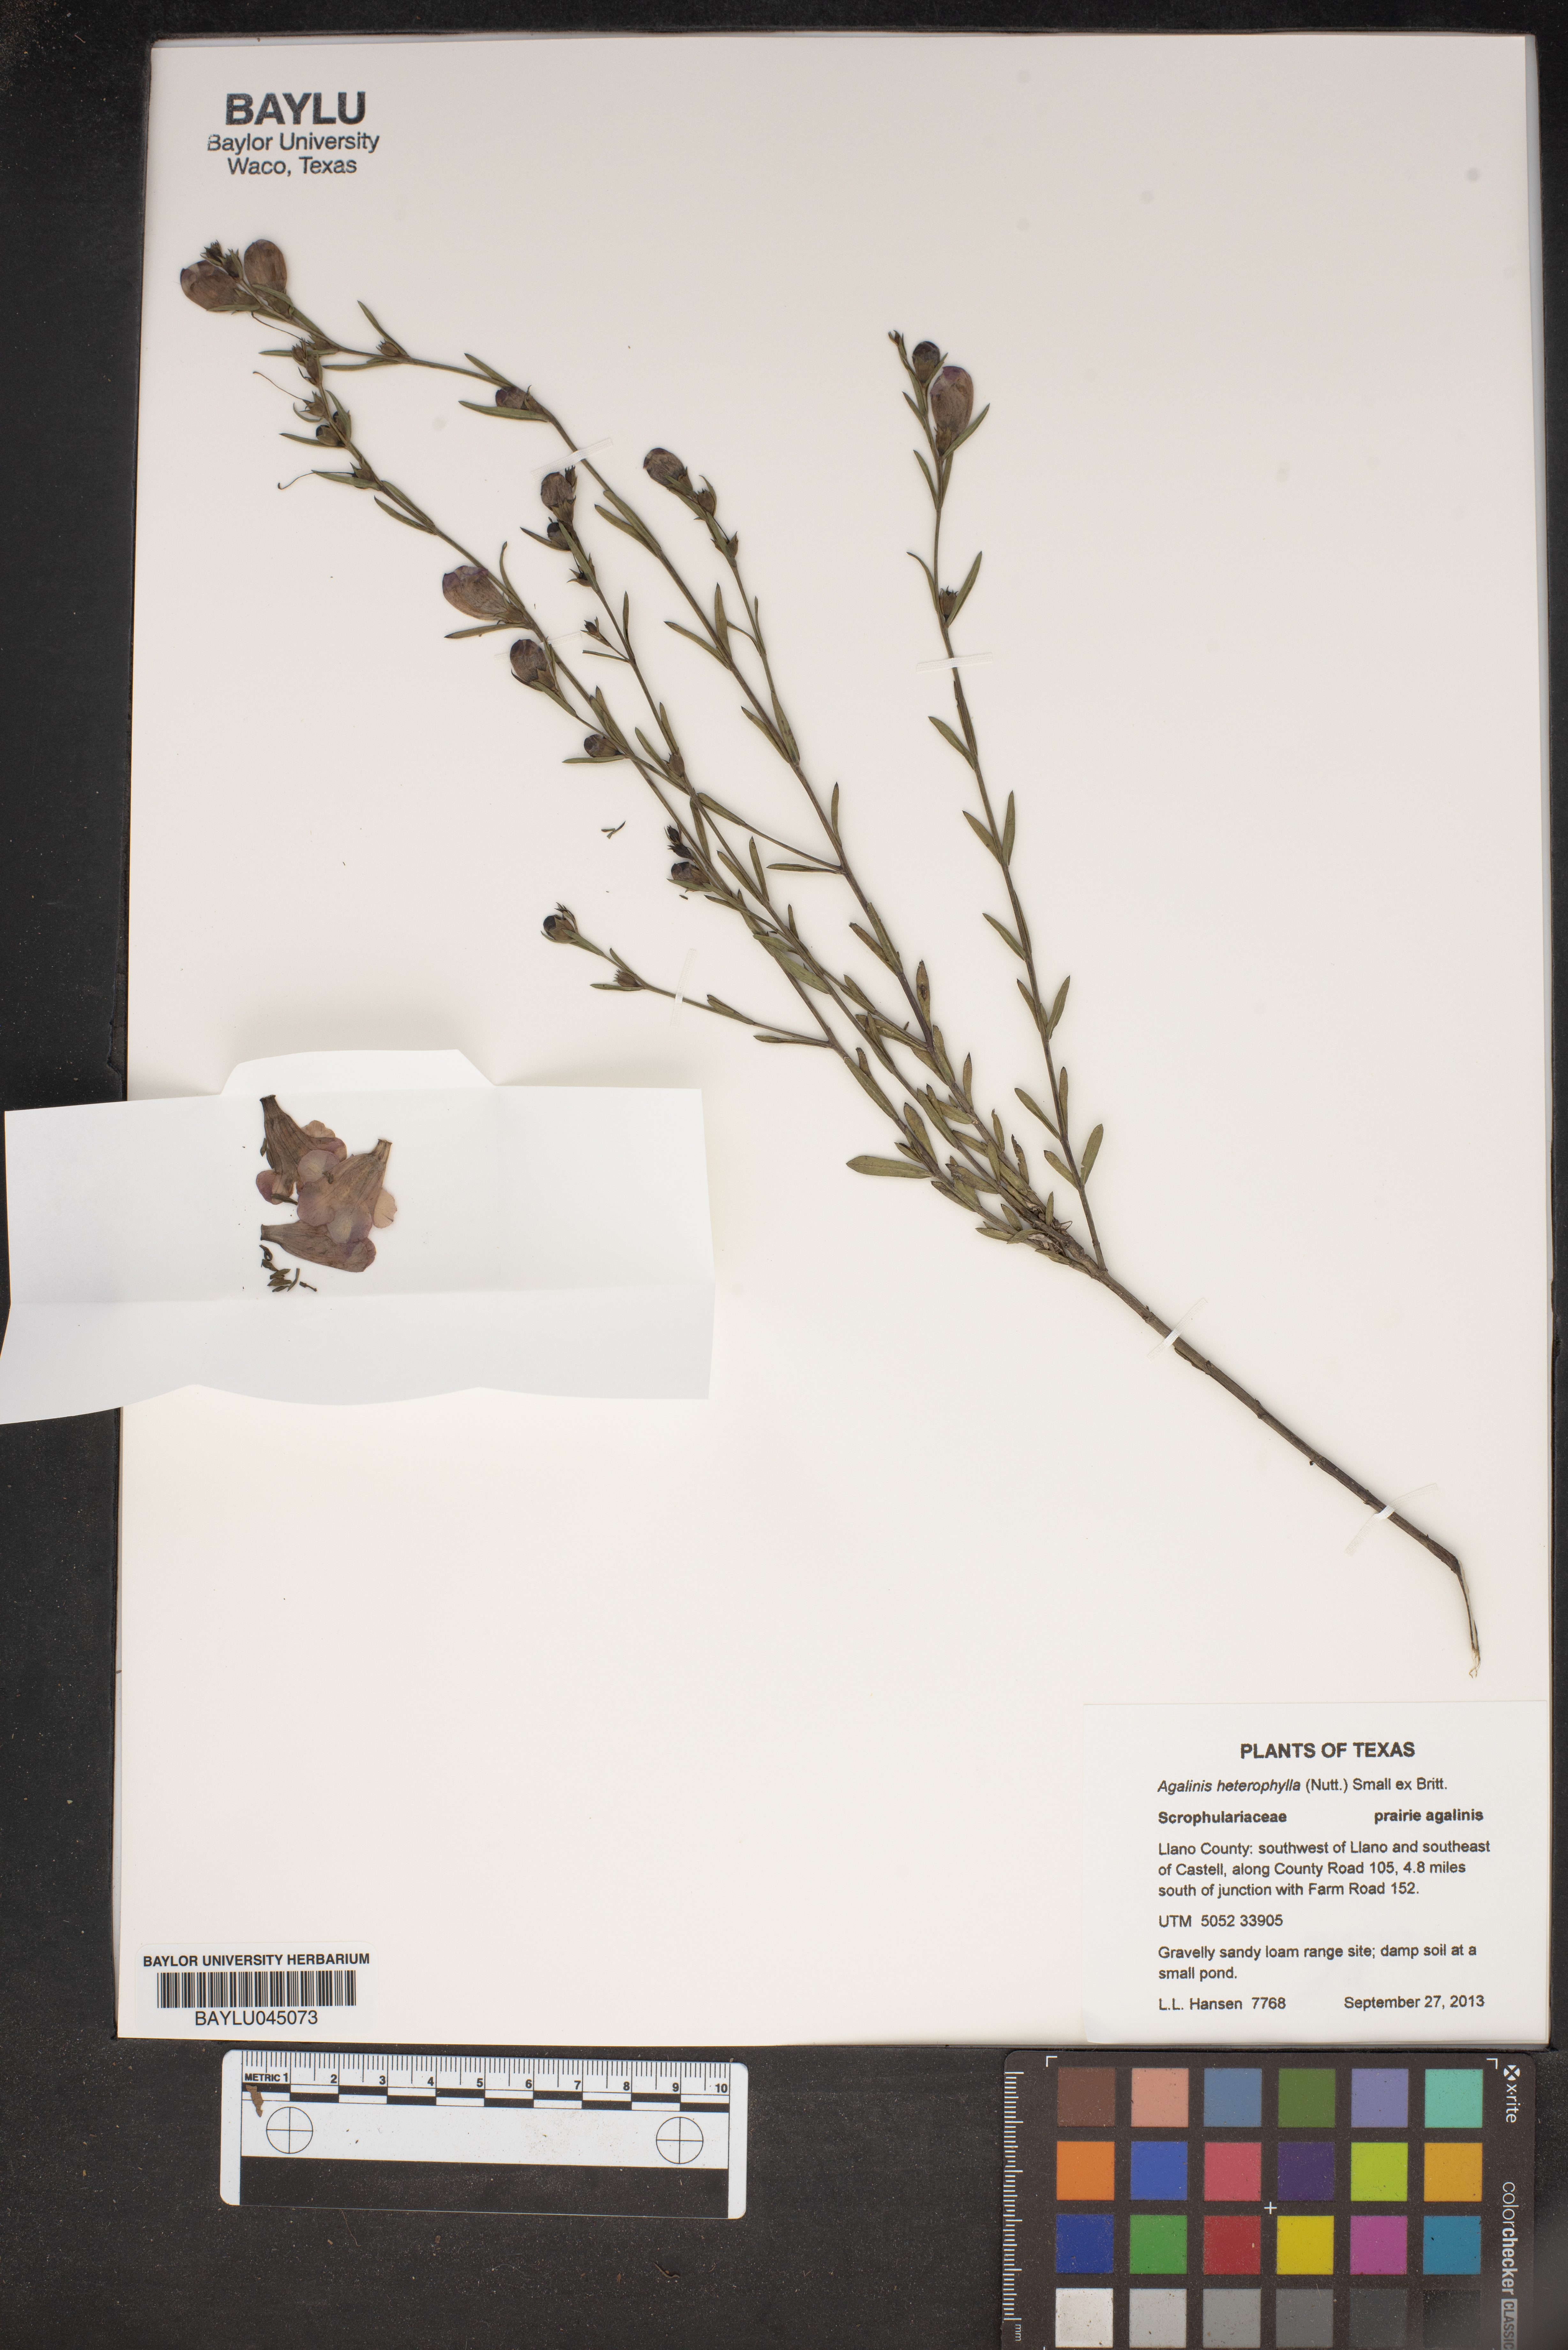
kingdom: Plantae
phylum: Tracheophyta
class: Magnoliopsida
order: Lamiales
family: Orobanchaceae
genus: Agalinis
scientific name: Agalinis heterophylla
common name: Prairie agalinis
